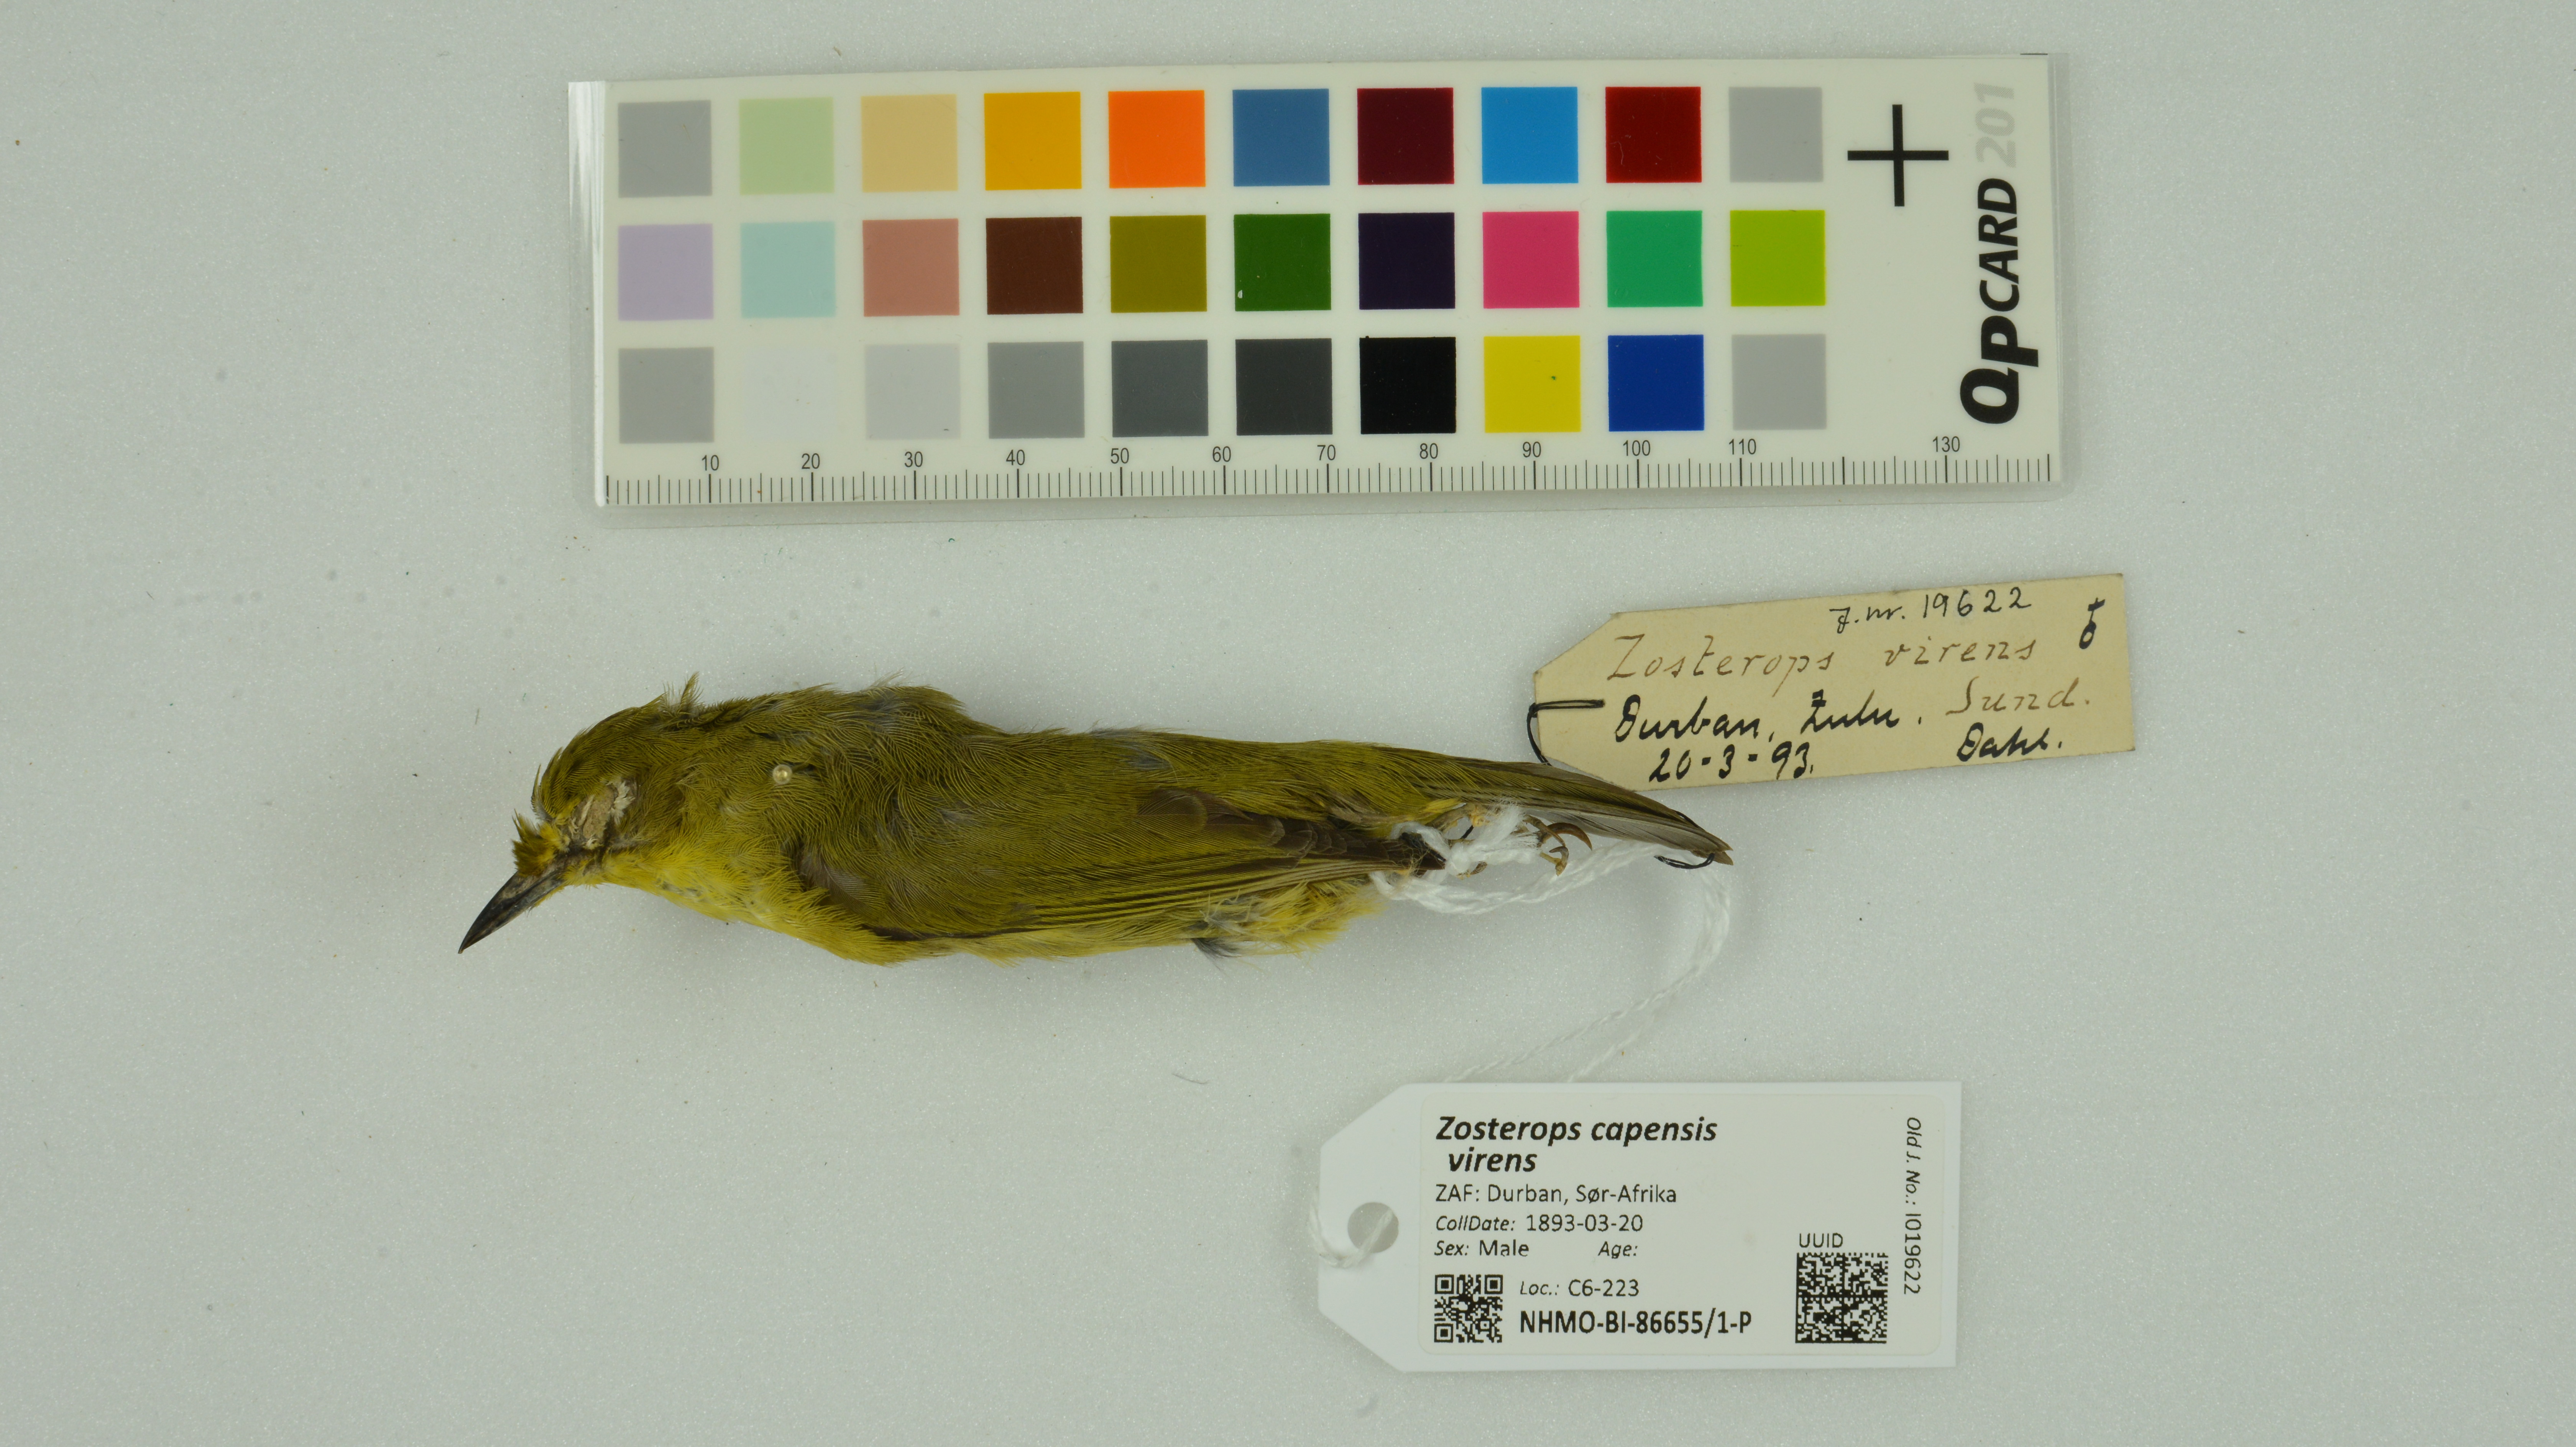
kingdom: Animalia
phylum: Chordata
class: Aves
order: Passeriformes
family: Zosteropidae
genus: Zosterops
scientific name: Zosterops virens
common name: Cape white-eye
